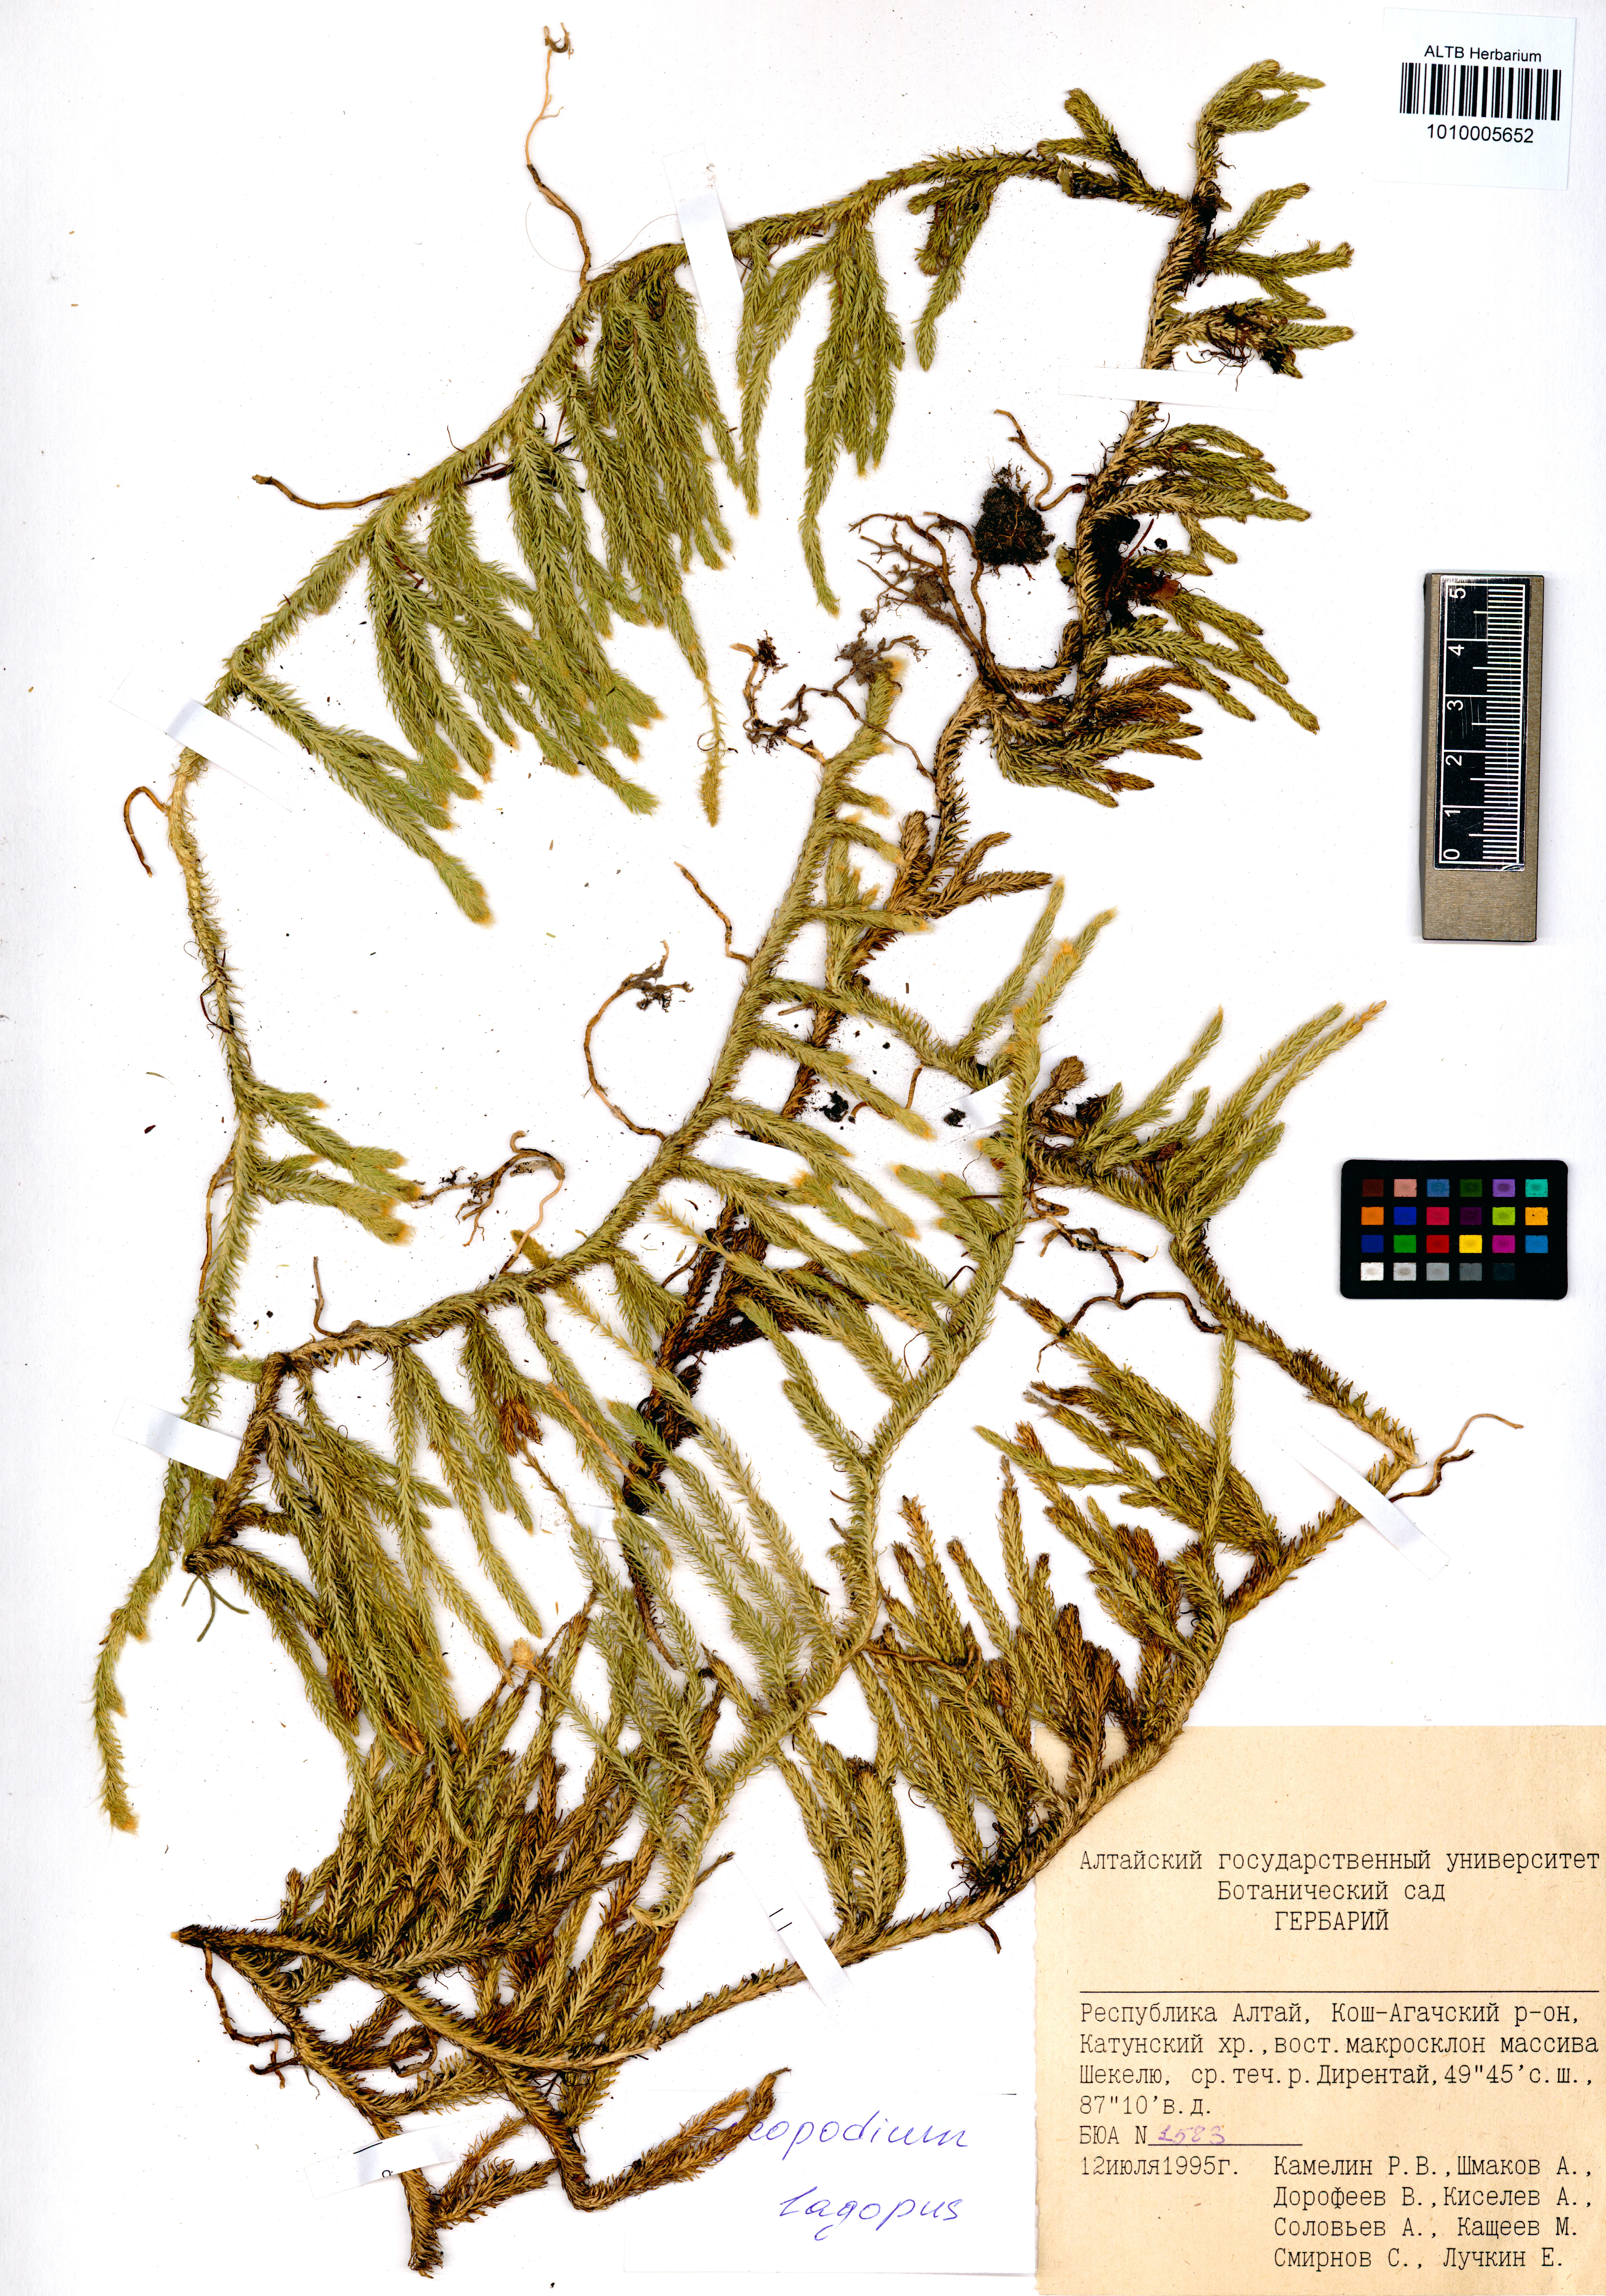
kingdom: Plantae
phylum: Tracheophyta
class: Lycopodiopsida
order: Lycopodiales
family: Lycopodiaceae
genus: Lycopodium
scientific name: Lycopodium lagopus
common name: One-cone clubmoss
